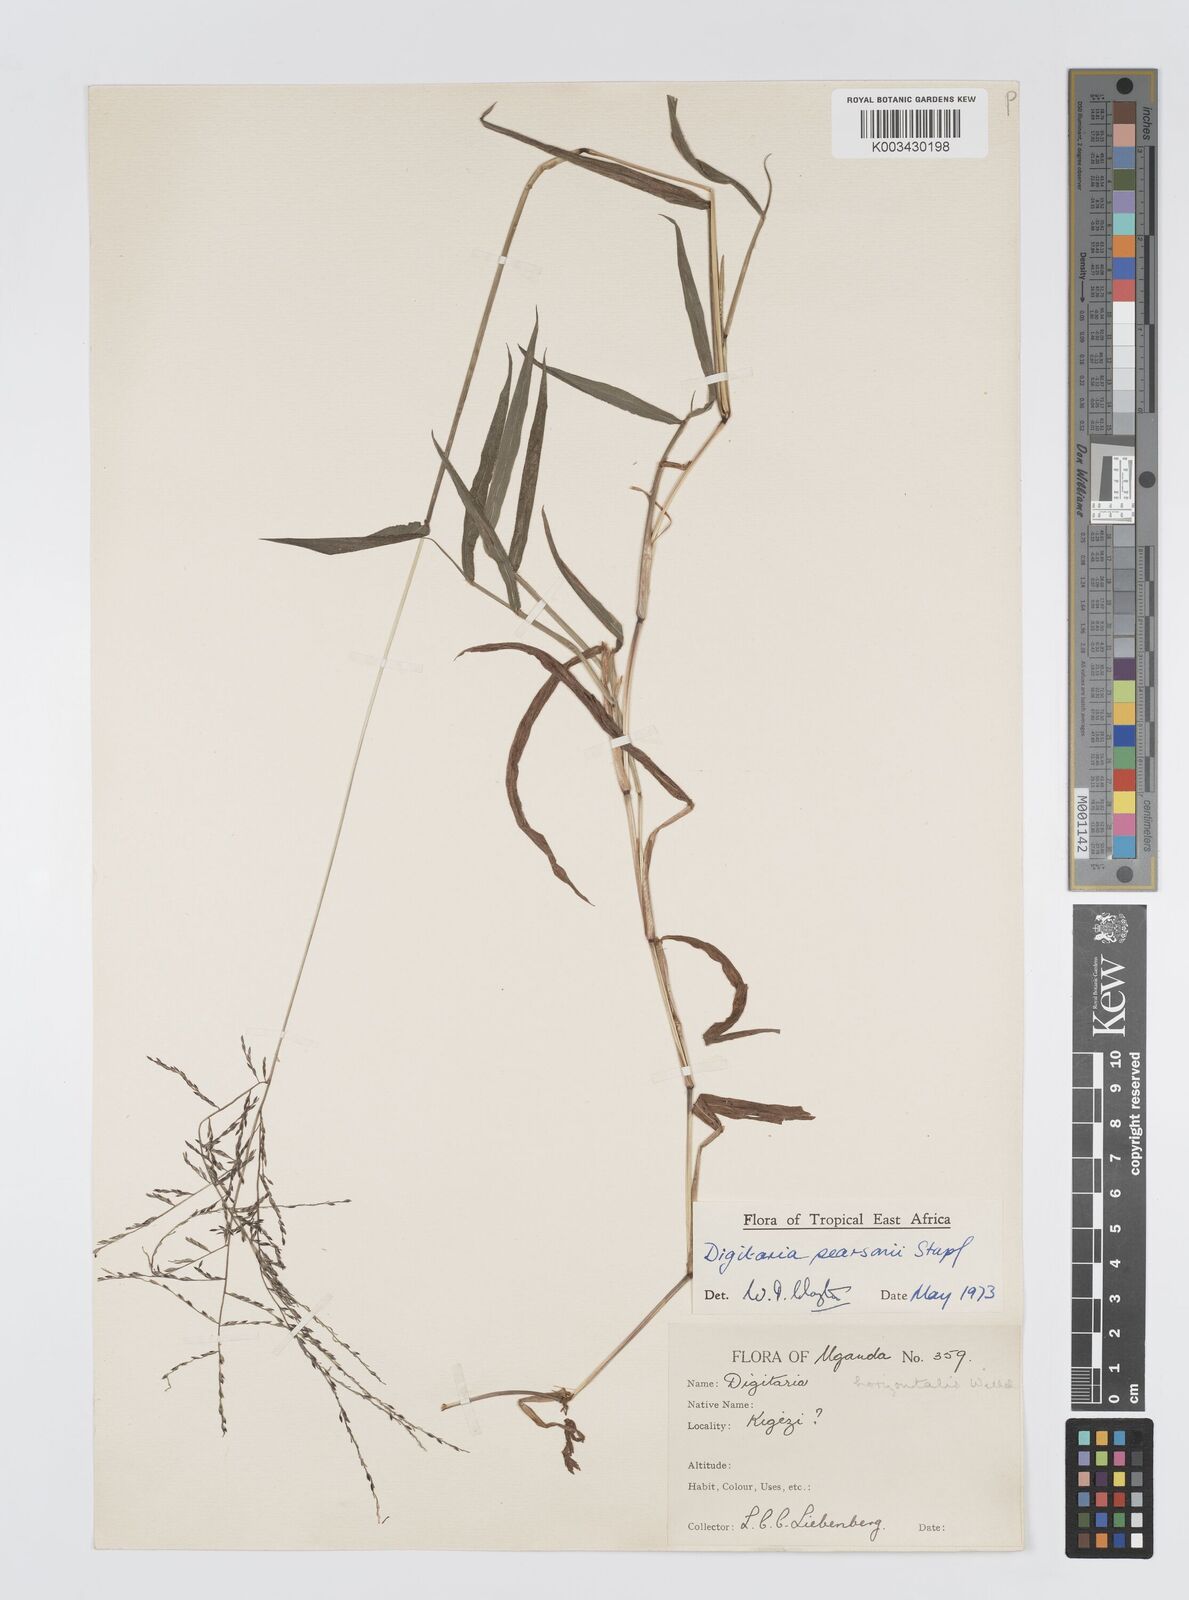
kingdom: Plantae
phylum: Tracheophyta
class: Liliopsida
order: Poales
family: Poaceae
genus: Digitaria
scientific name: Digitaria pearsonii
